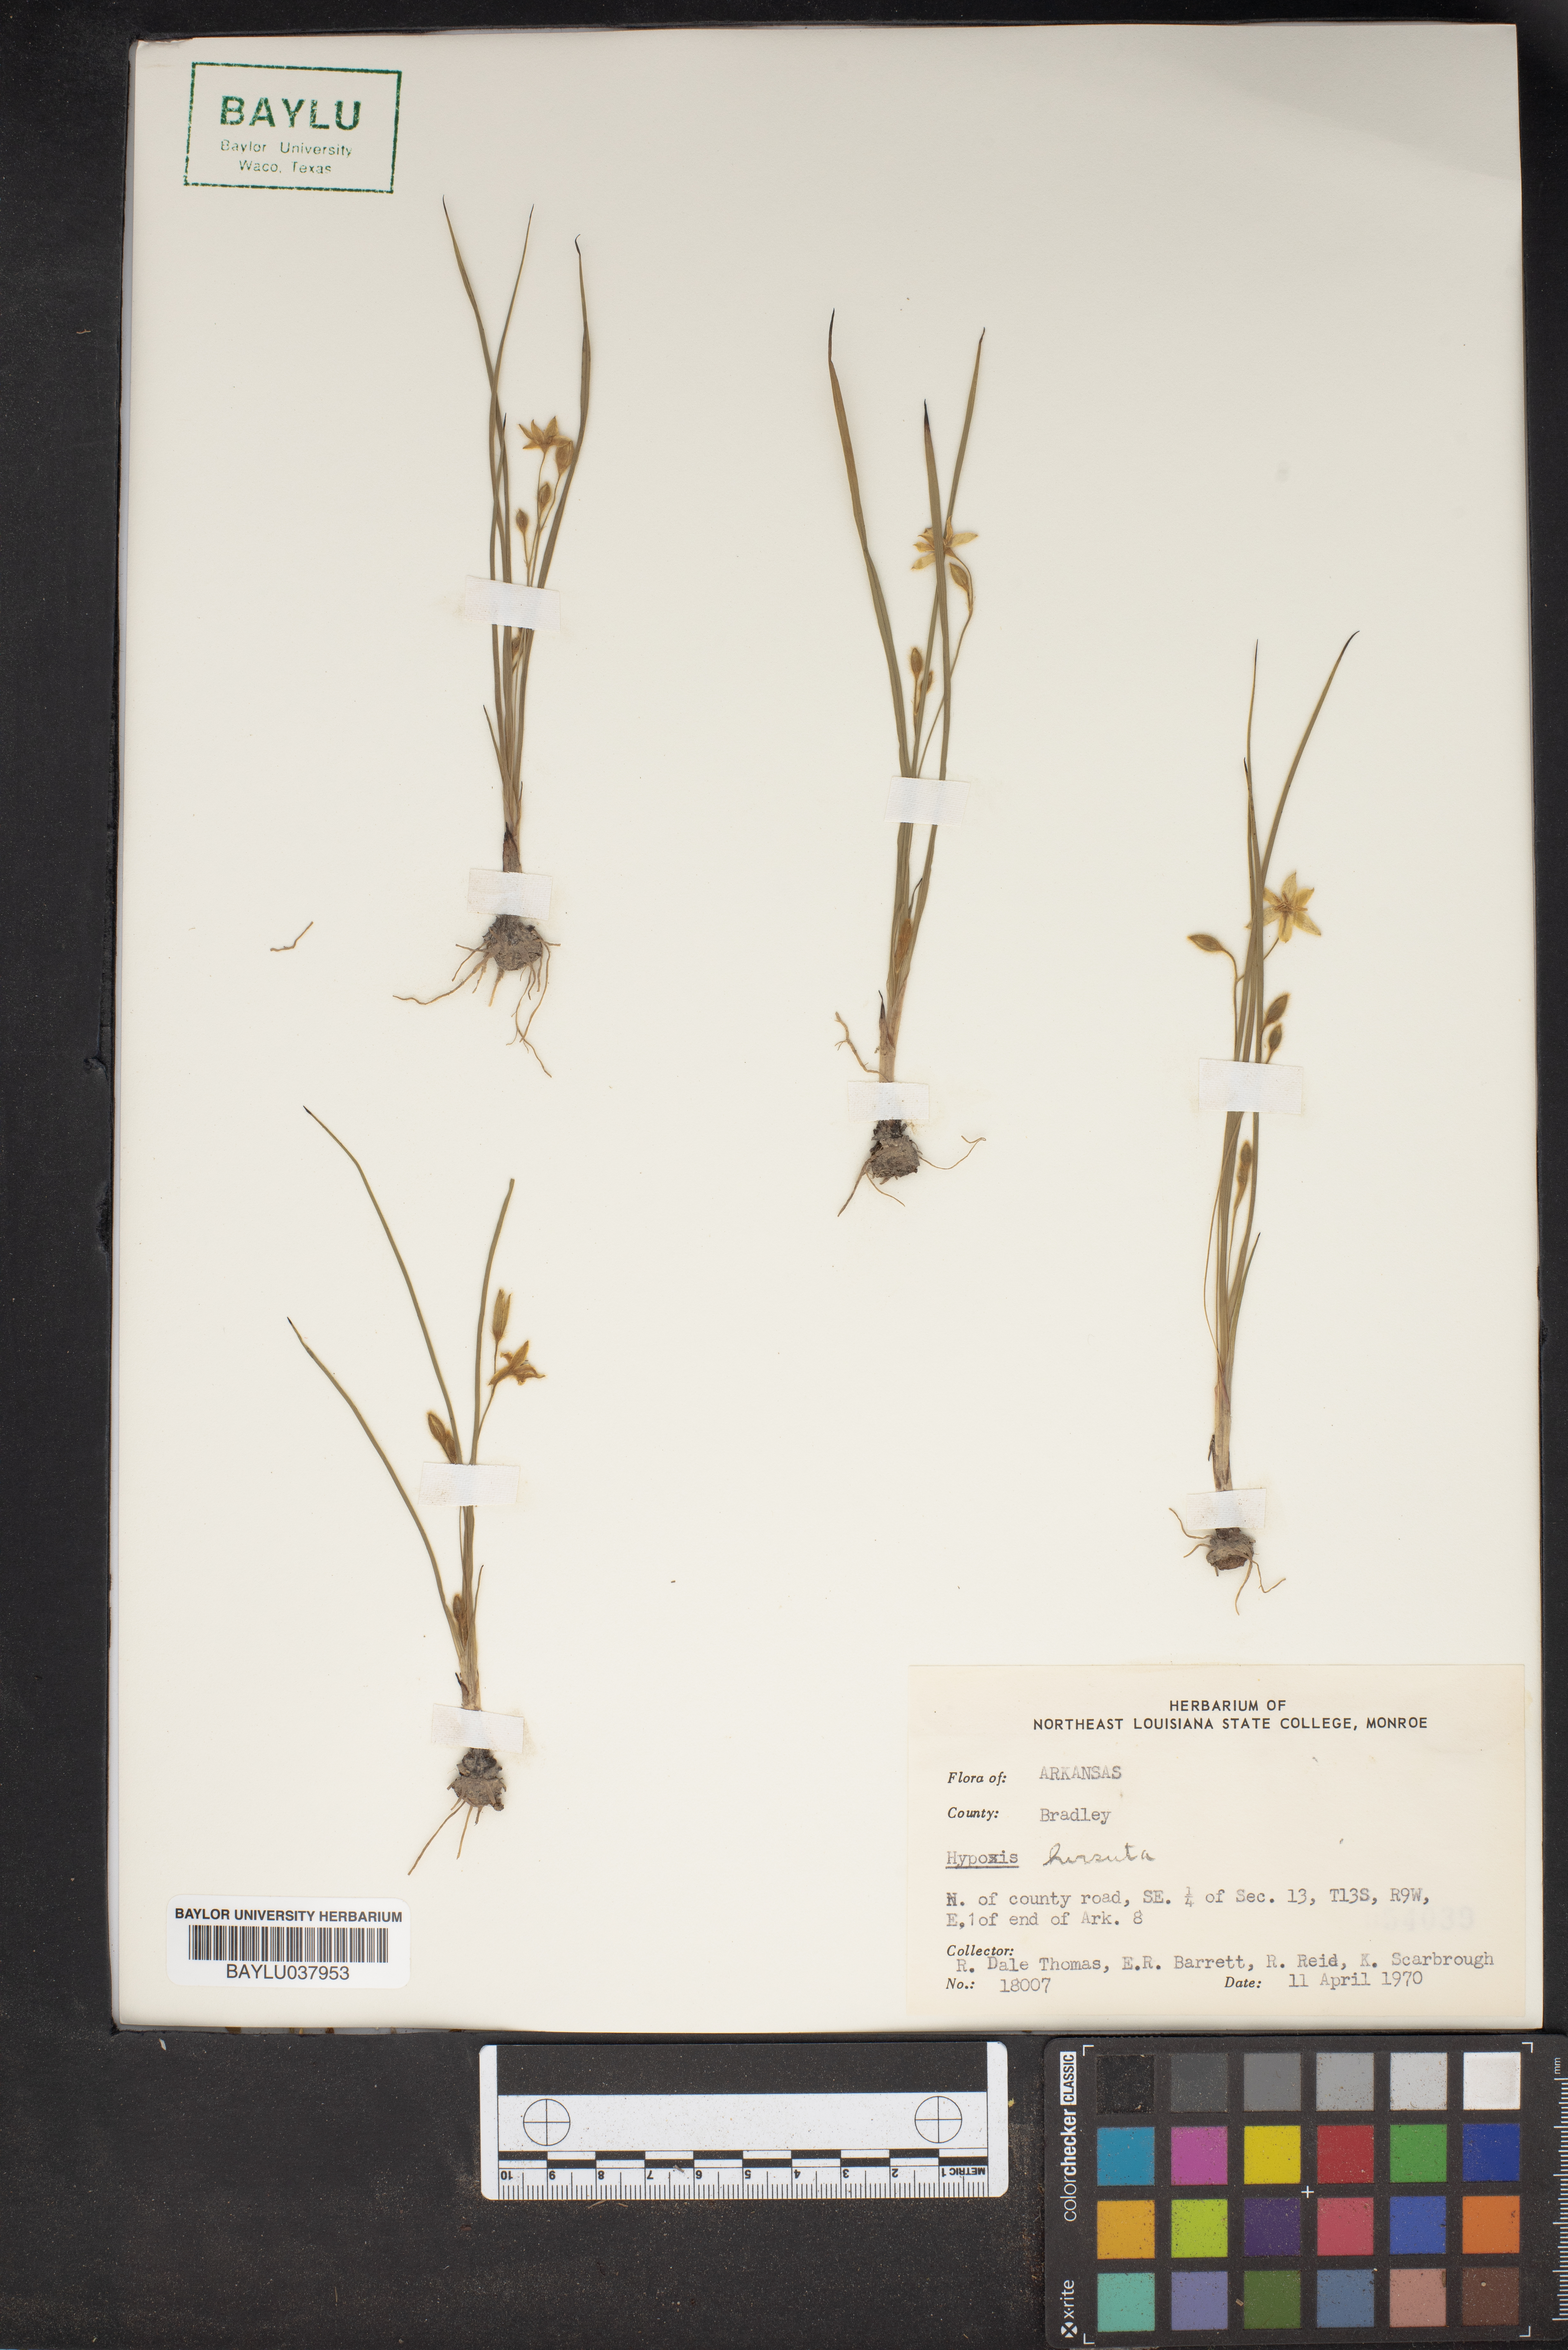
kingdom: Plantae
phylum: Tracheophyta
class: Liliopsida
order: Asparagales
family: Hypoxidaceae
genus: Hypoxis
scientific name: Hypoxis hirsuta
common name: Common goldstar
